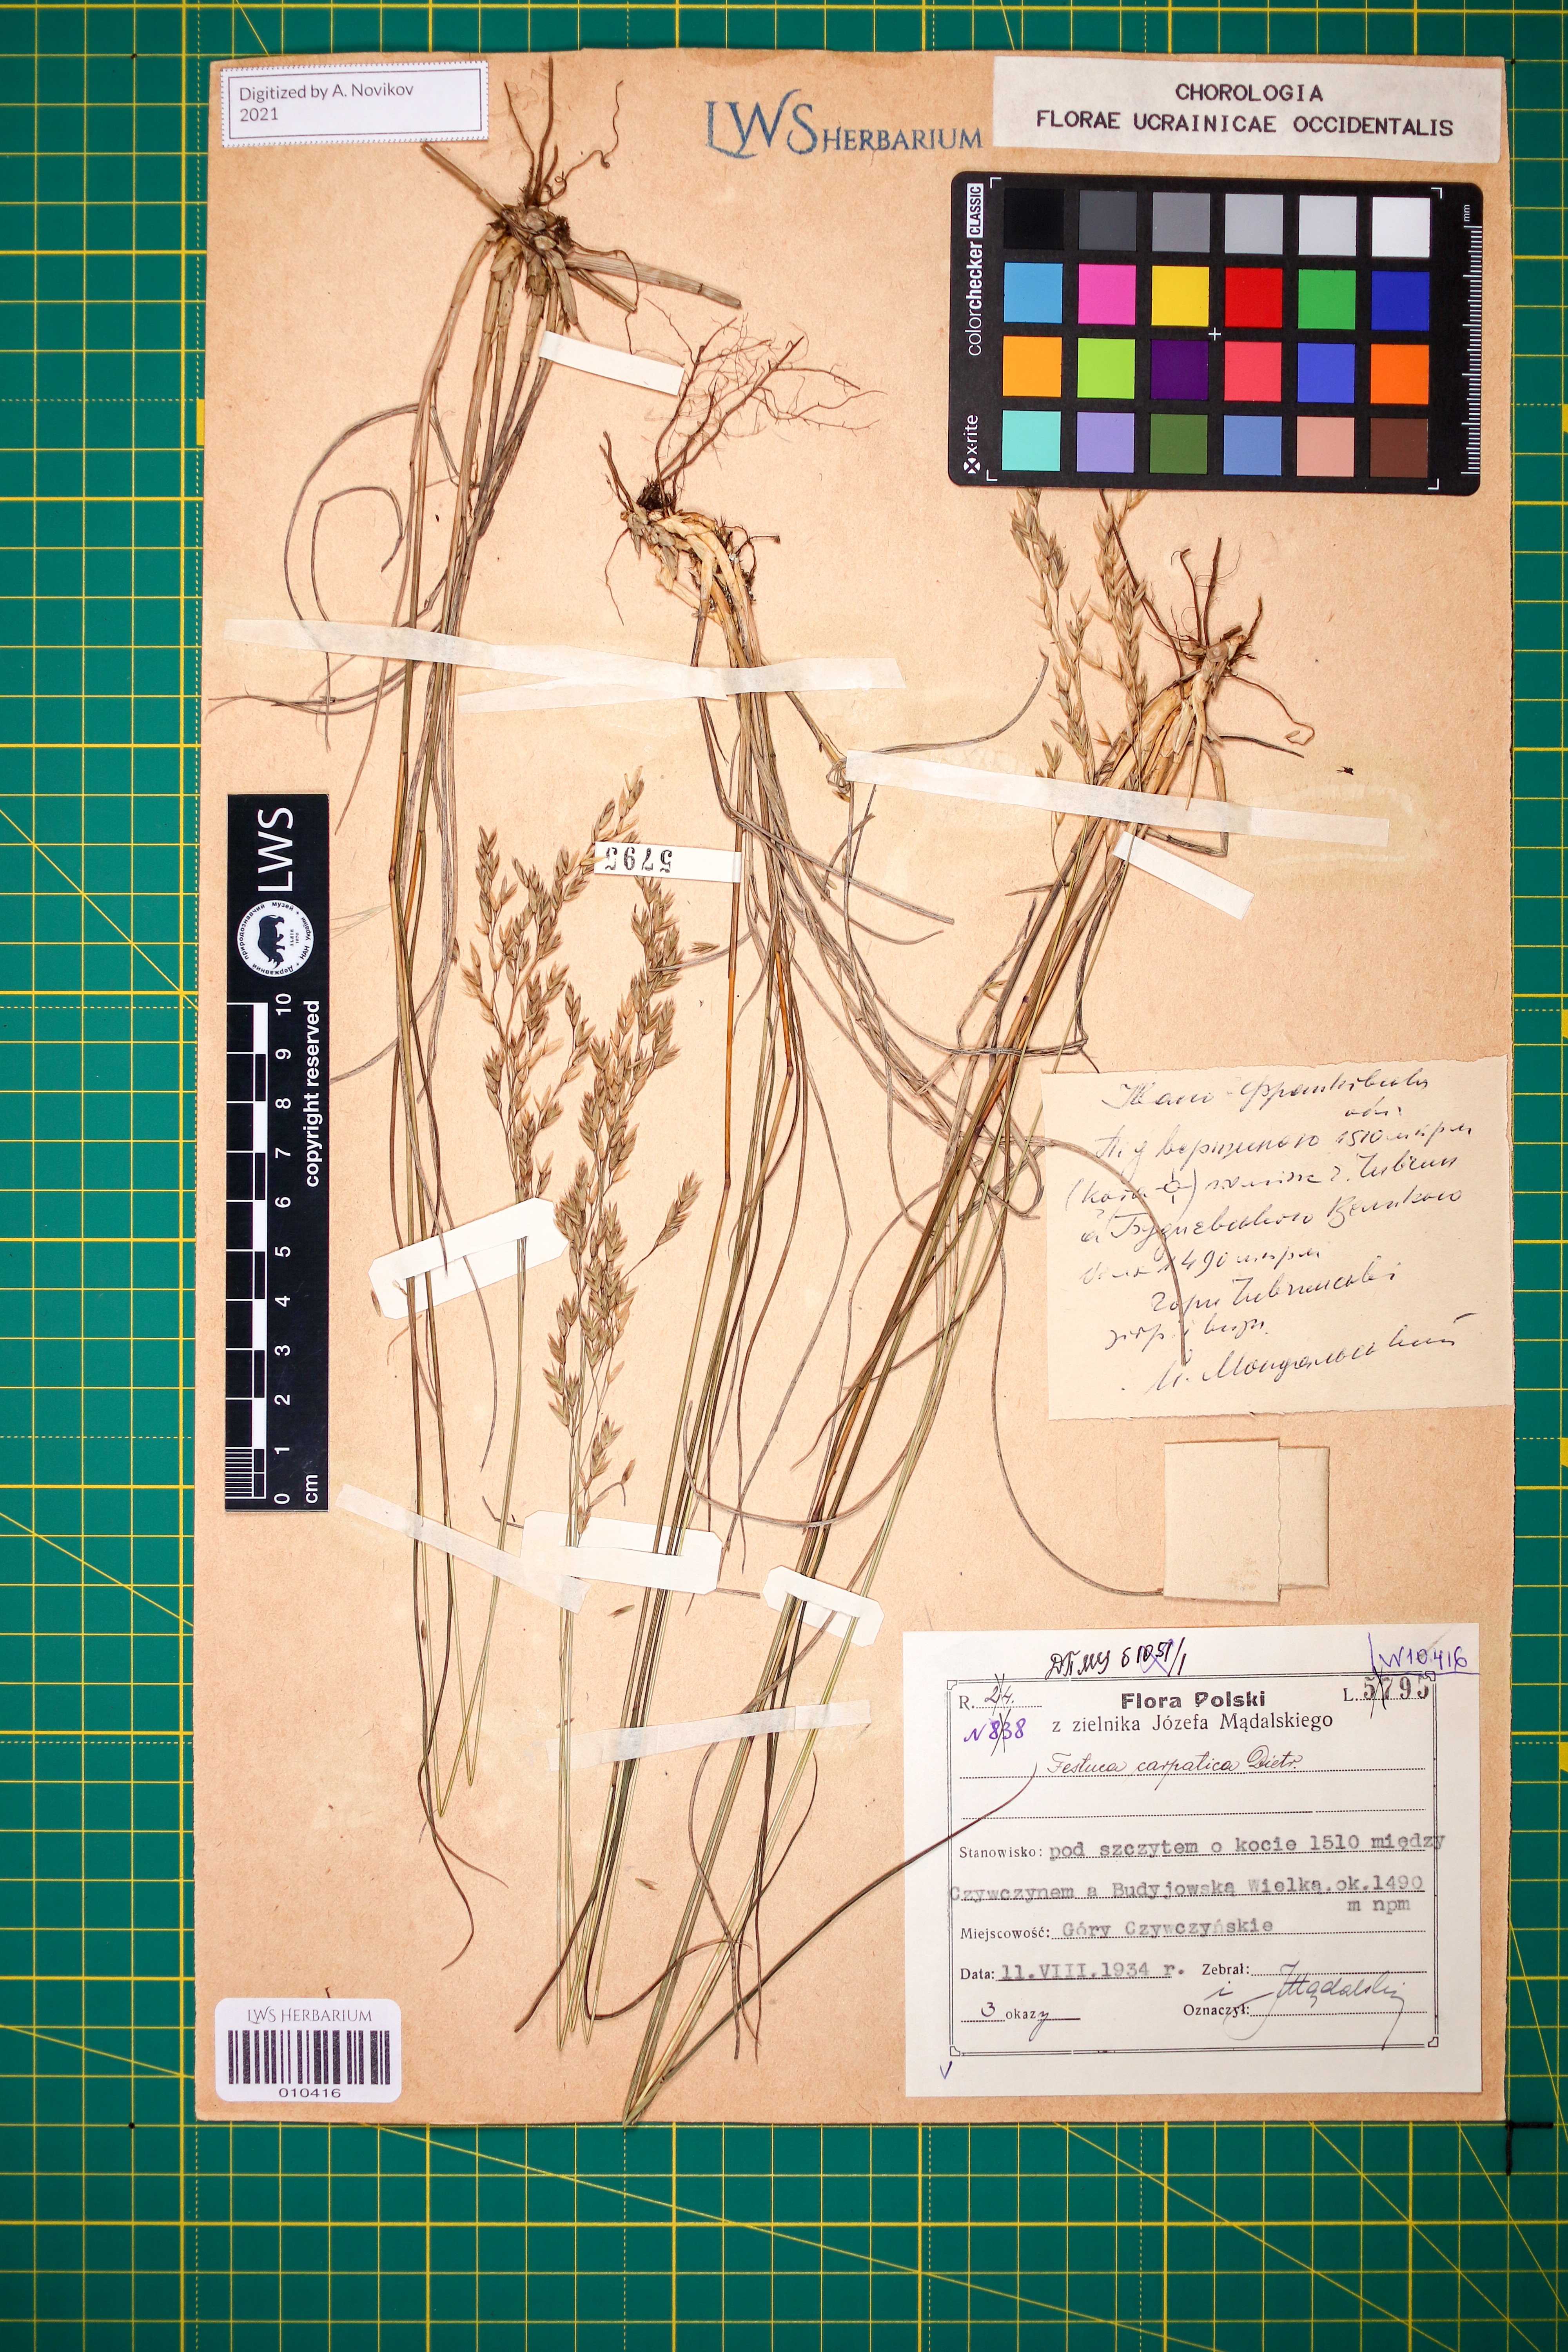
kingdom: Plantae
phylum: Tracheophyta
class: Liliopsida
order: Poales
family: Poaceae
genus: Festuca
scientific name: Festuca carpatica
